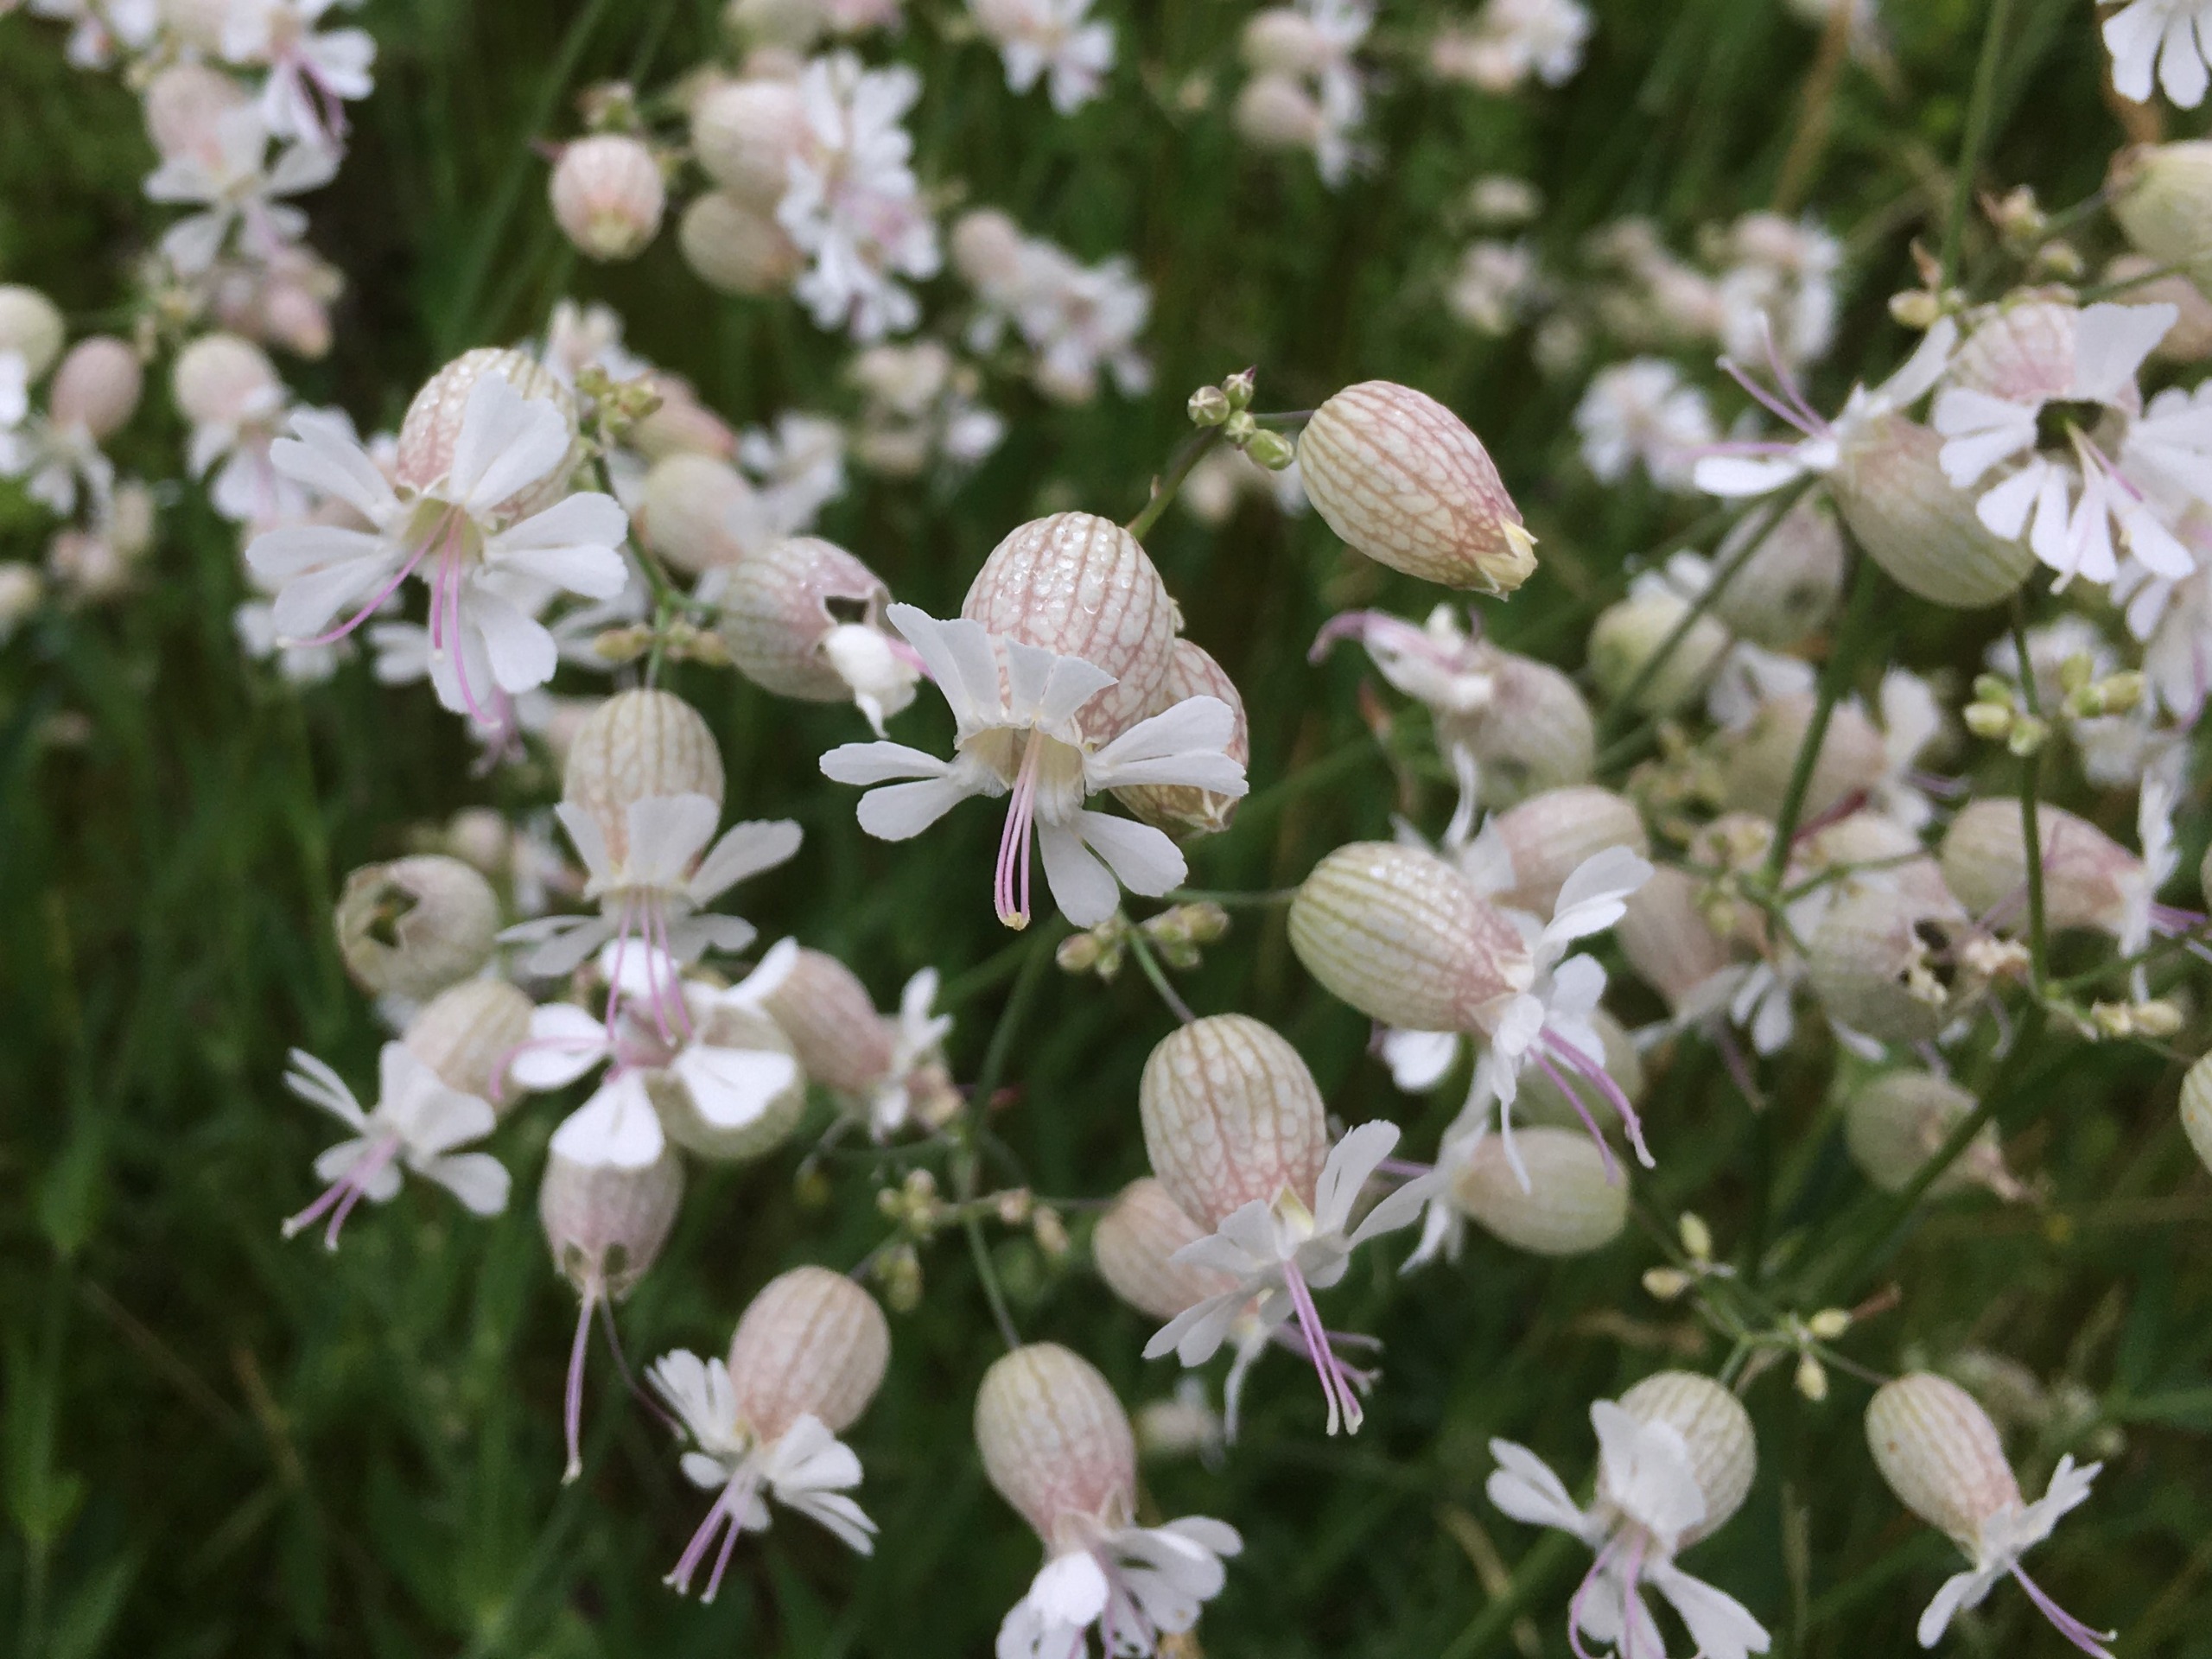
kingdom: Plantae
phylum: Tracheophyta
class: Magnoliopsida
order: Caryophyllales
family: Caryophyllaceae
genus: Silene
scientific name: Silene vulgaris
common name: Blæresmælde
